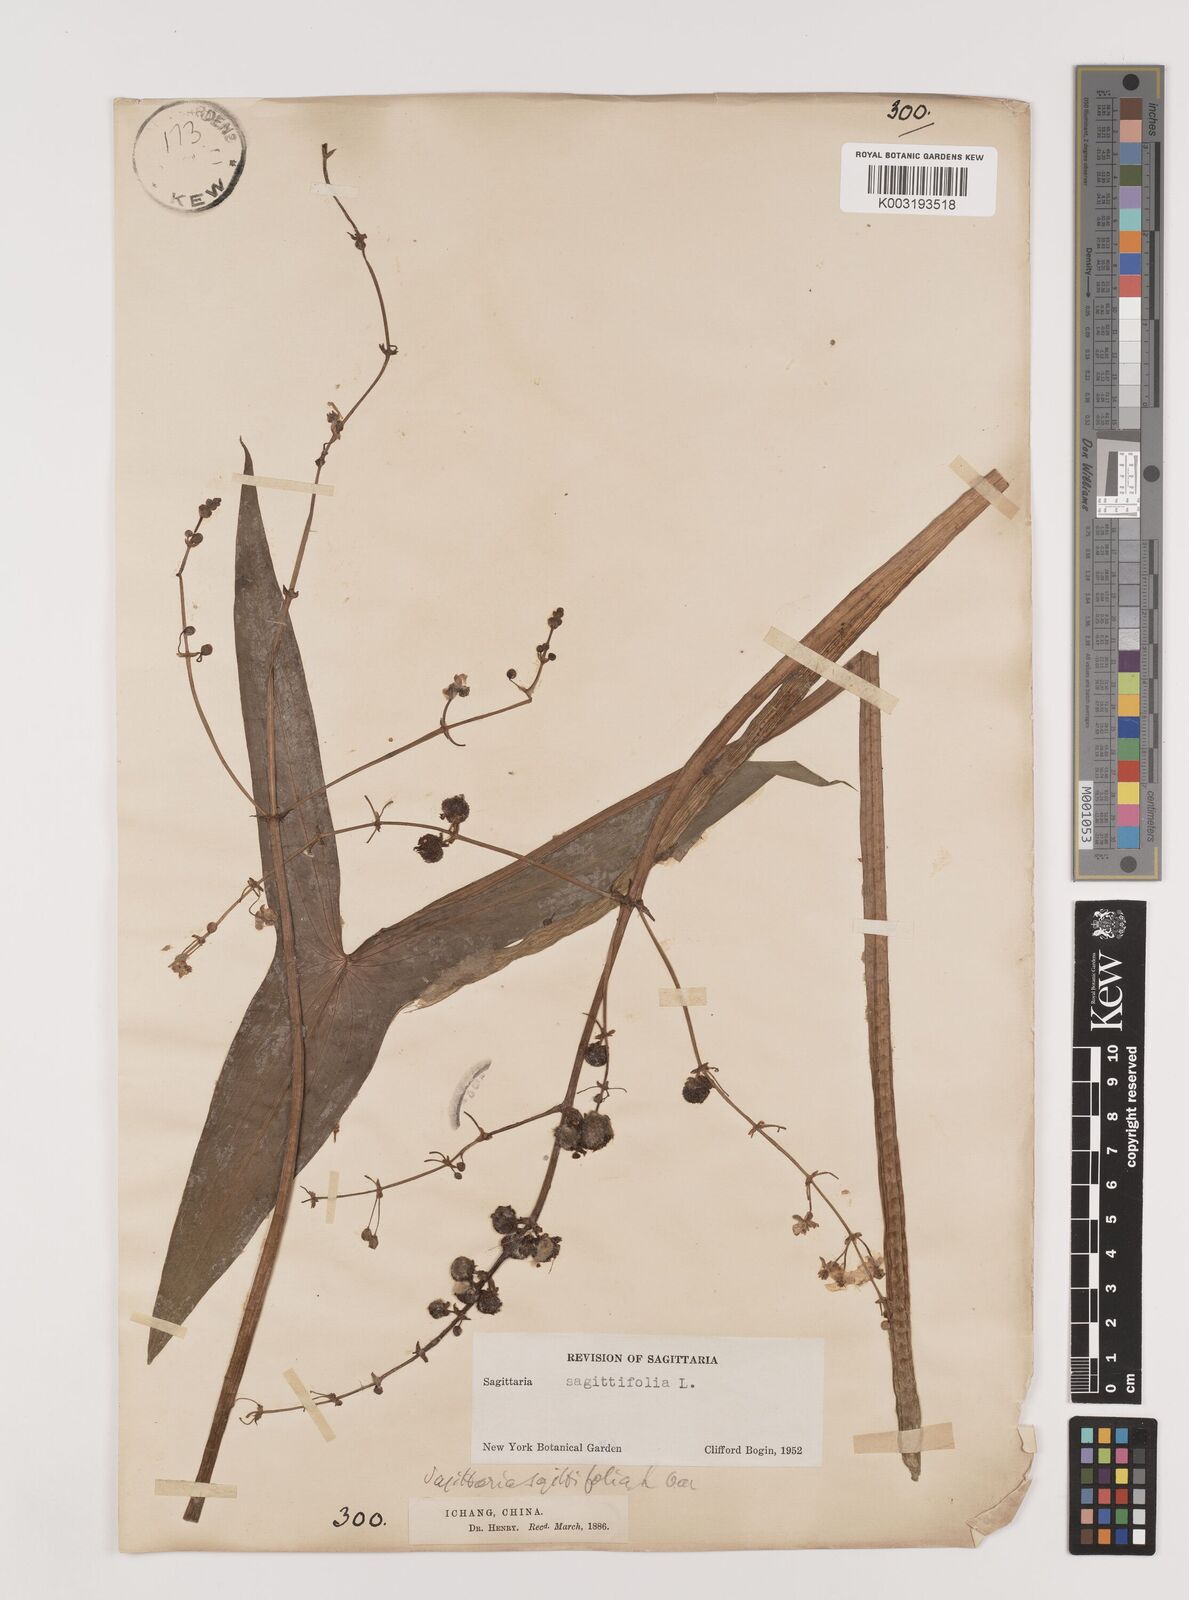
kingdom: Plantae
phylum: Tracheophyta
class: Liliopsida
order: Alismatales
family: Alismataceae
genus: Sagittaria
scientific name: Sagittaria sagittifolia
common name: Arrowhead
